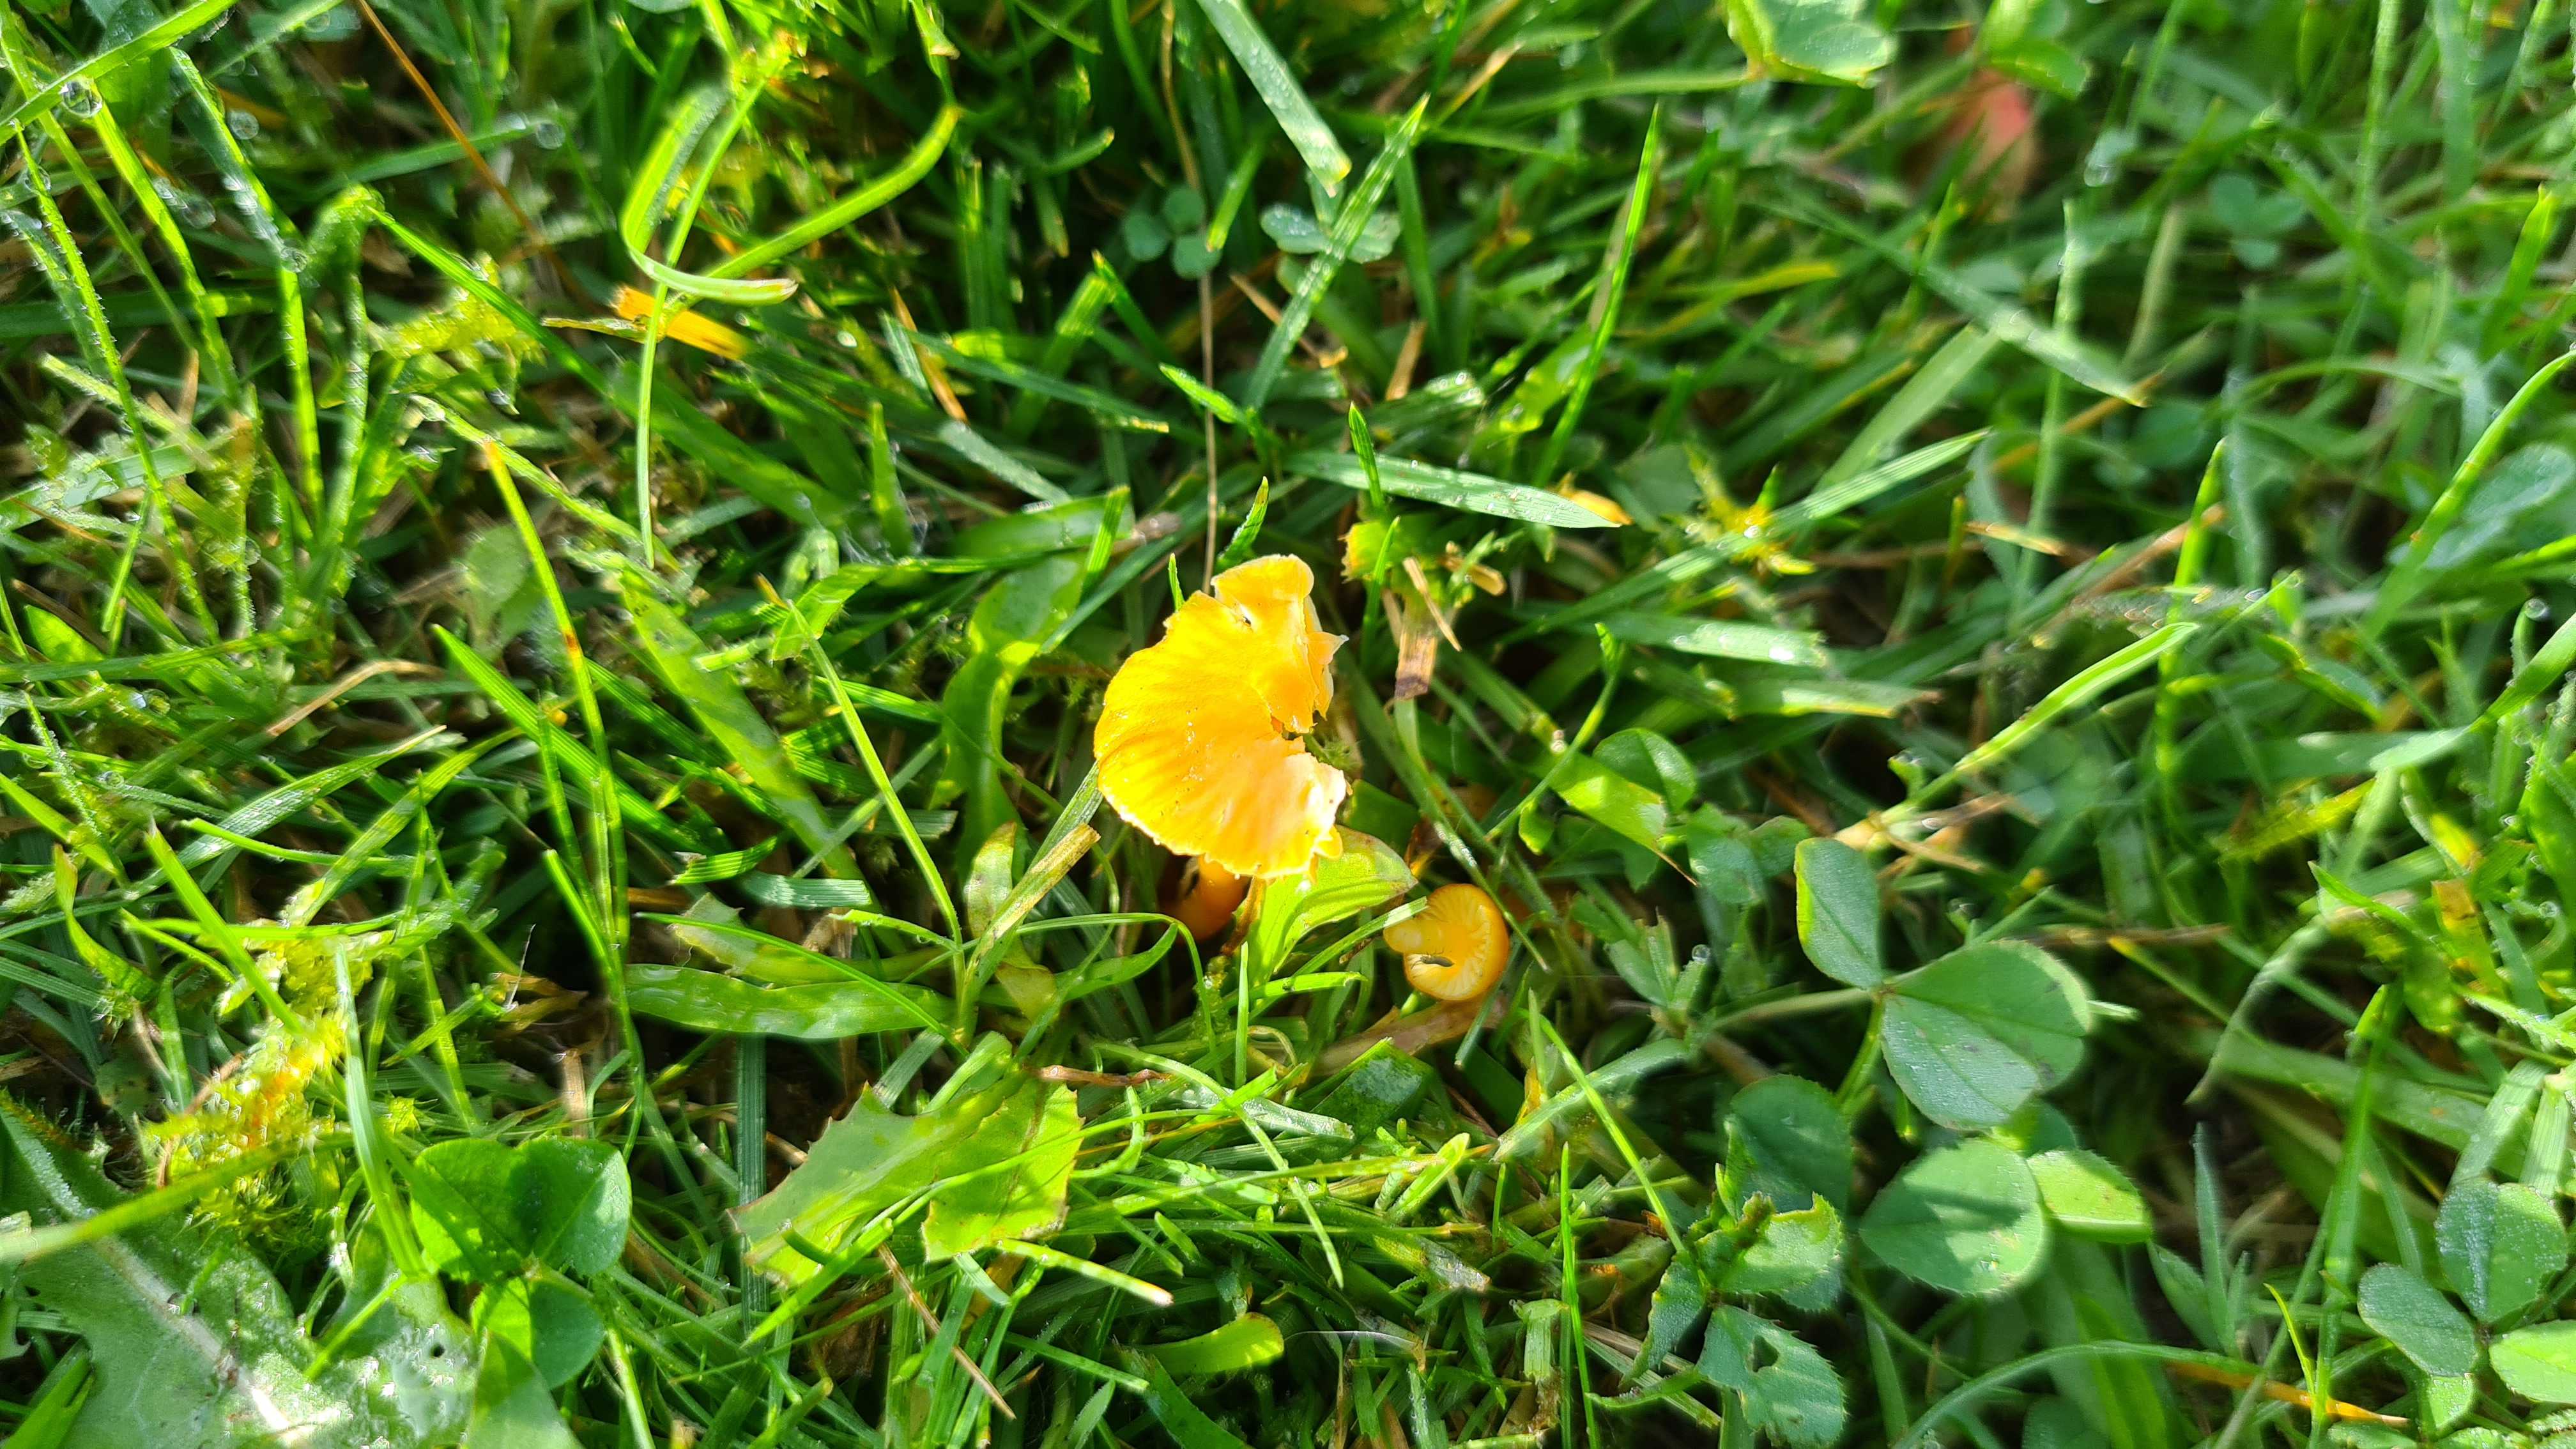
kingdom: Fungi
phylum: Basidiomycota
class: Agaricomycetes
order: Agaricales
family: Hygrophoraceae
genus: Hygrocybe
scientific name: Hygrocybe glutinipes
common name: slimstokket vokshat
